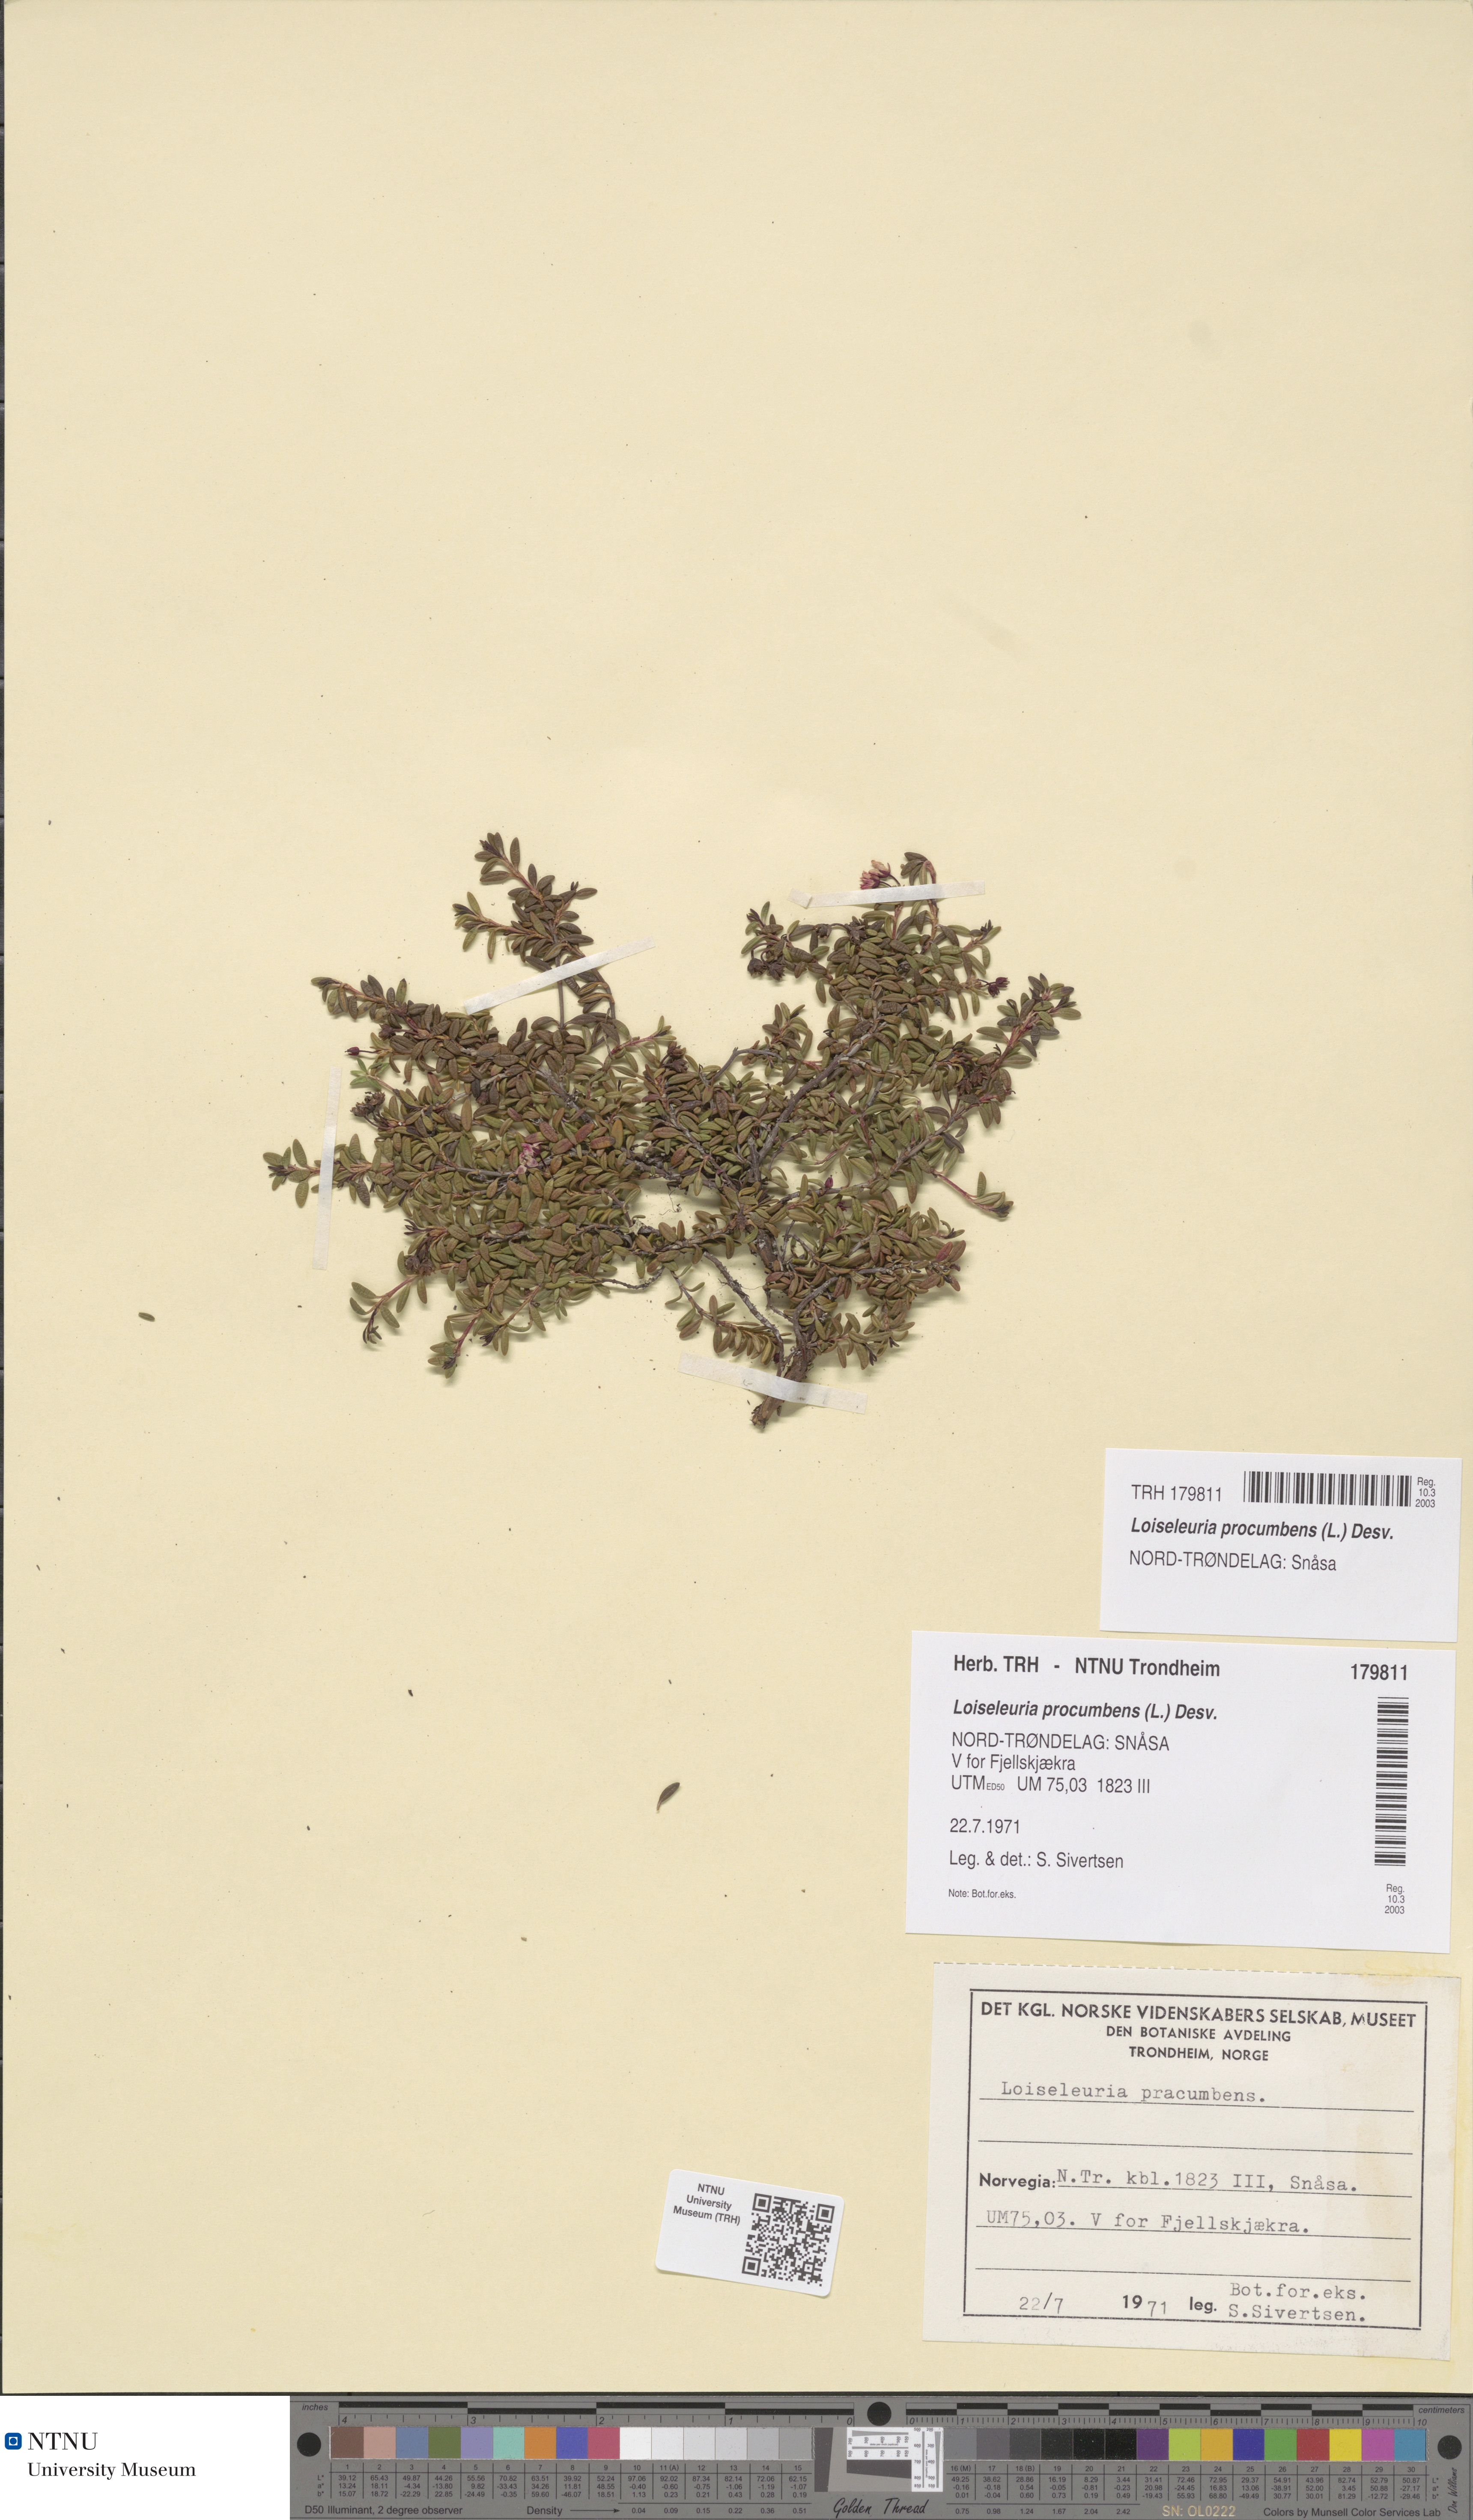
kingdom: Plantae
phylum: Tracheophyta
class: Magnoliopsida
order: Ericales
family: Ericaceae
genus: Kalmia
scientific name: Kalmia procumbens
